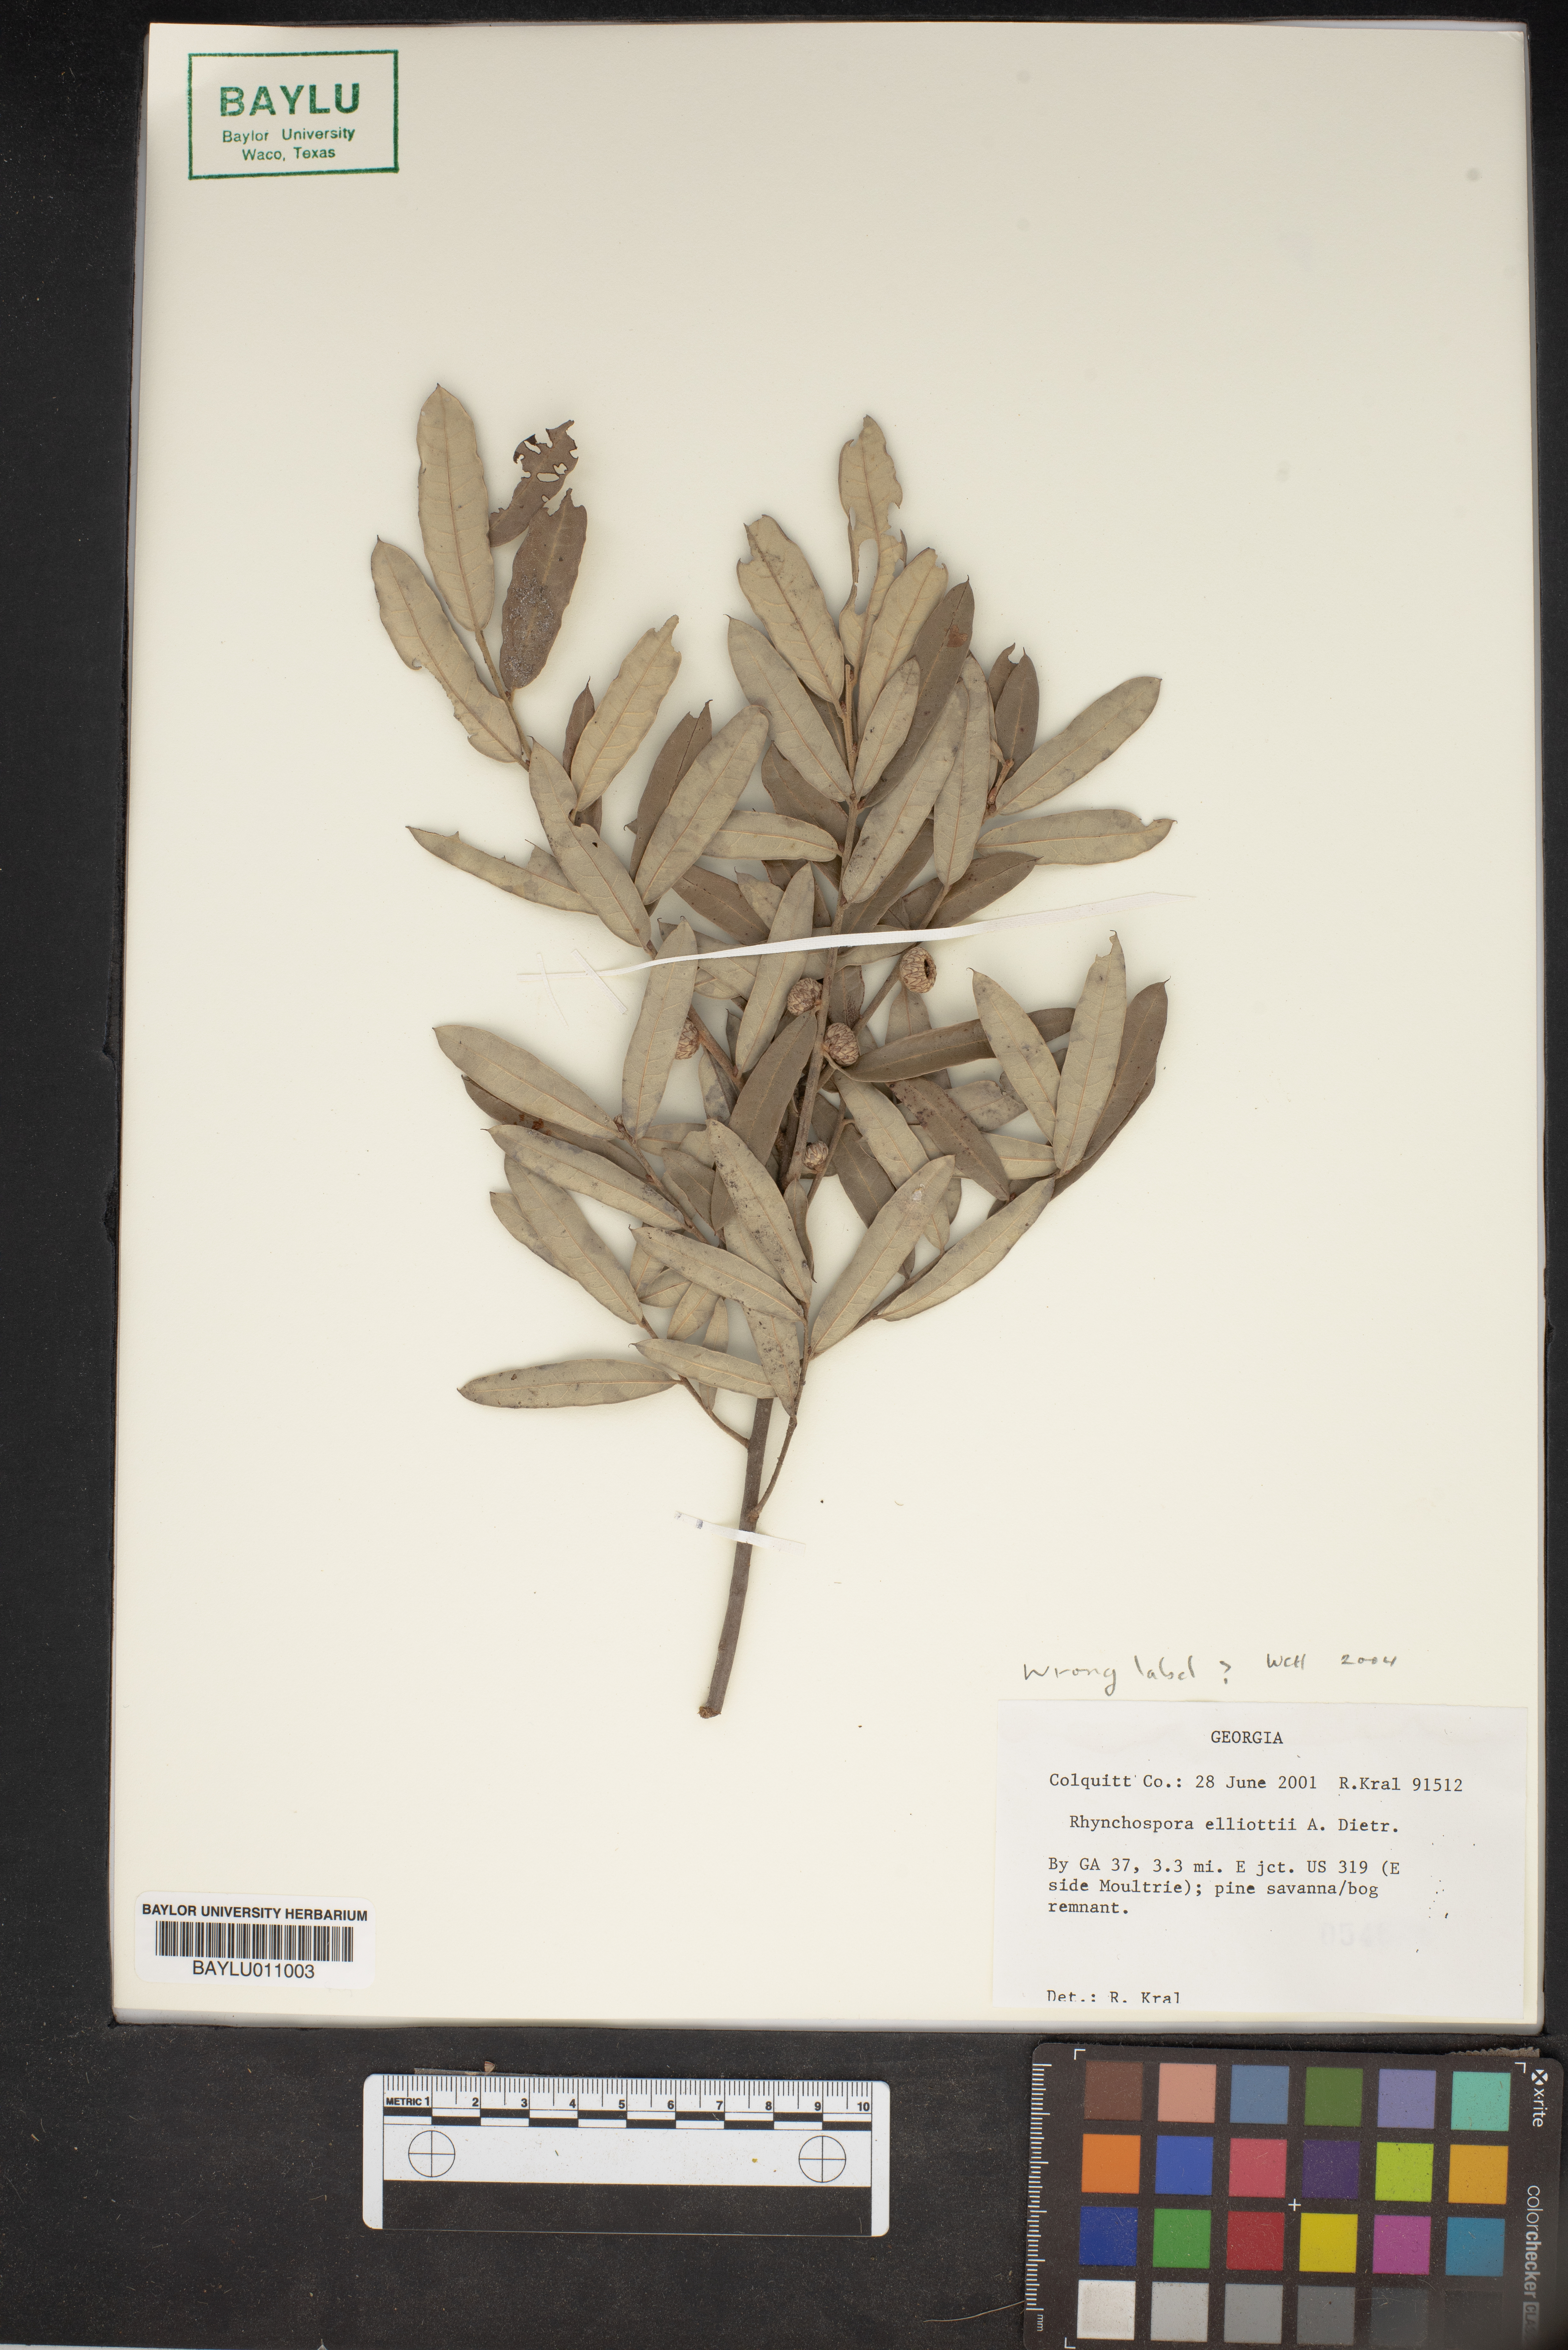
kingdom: Plantae
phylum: Tracheophyta
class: Liliopsida
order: Poales
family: Cyperaceae
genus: Rhynchospora
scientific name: Rhynchospora elliottii
